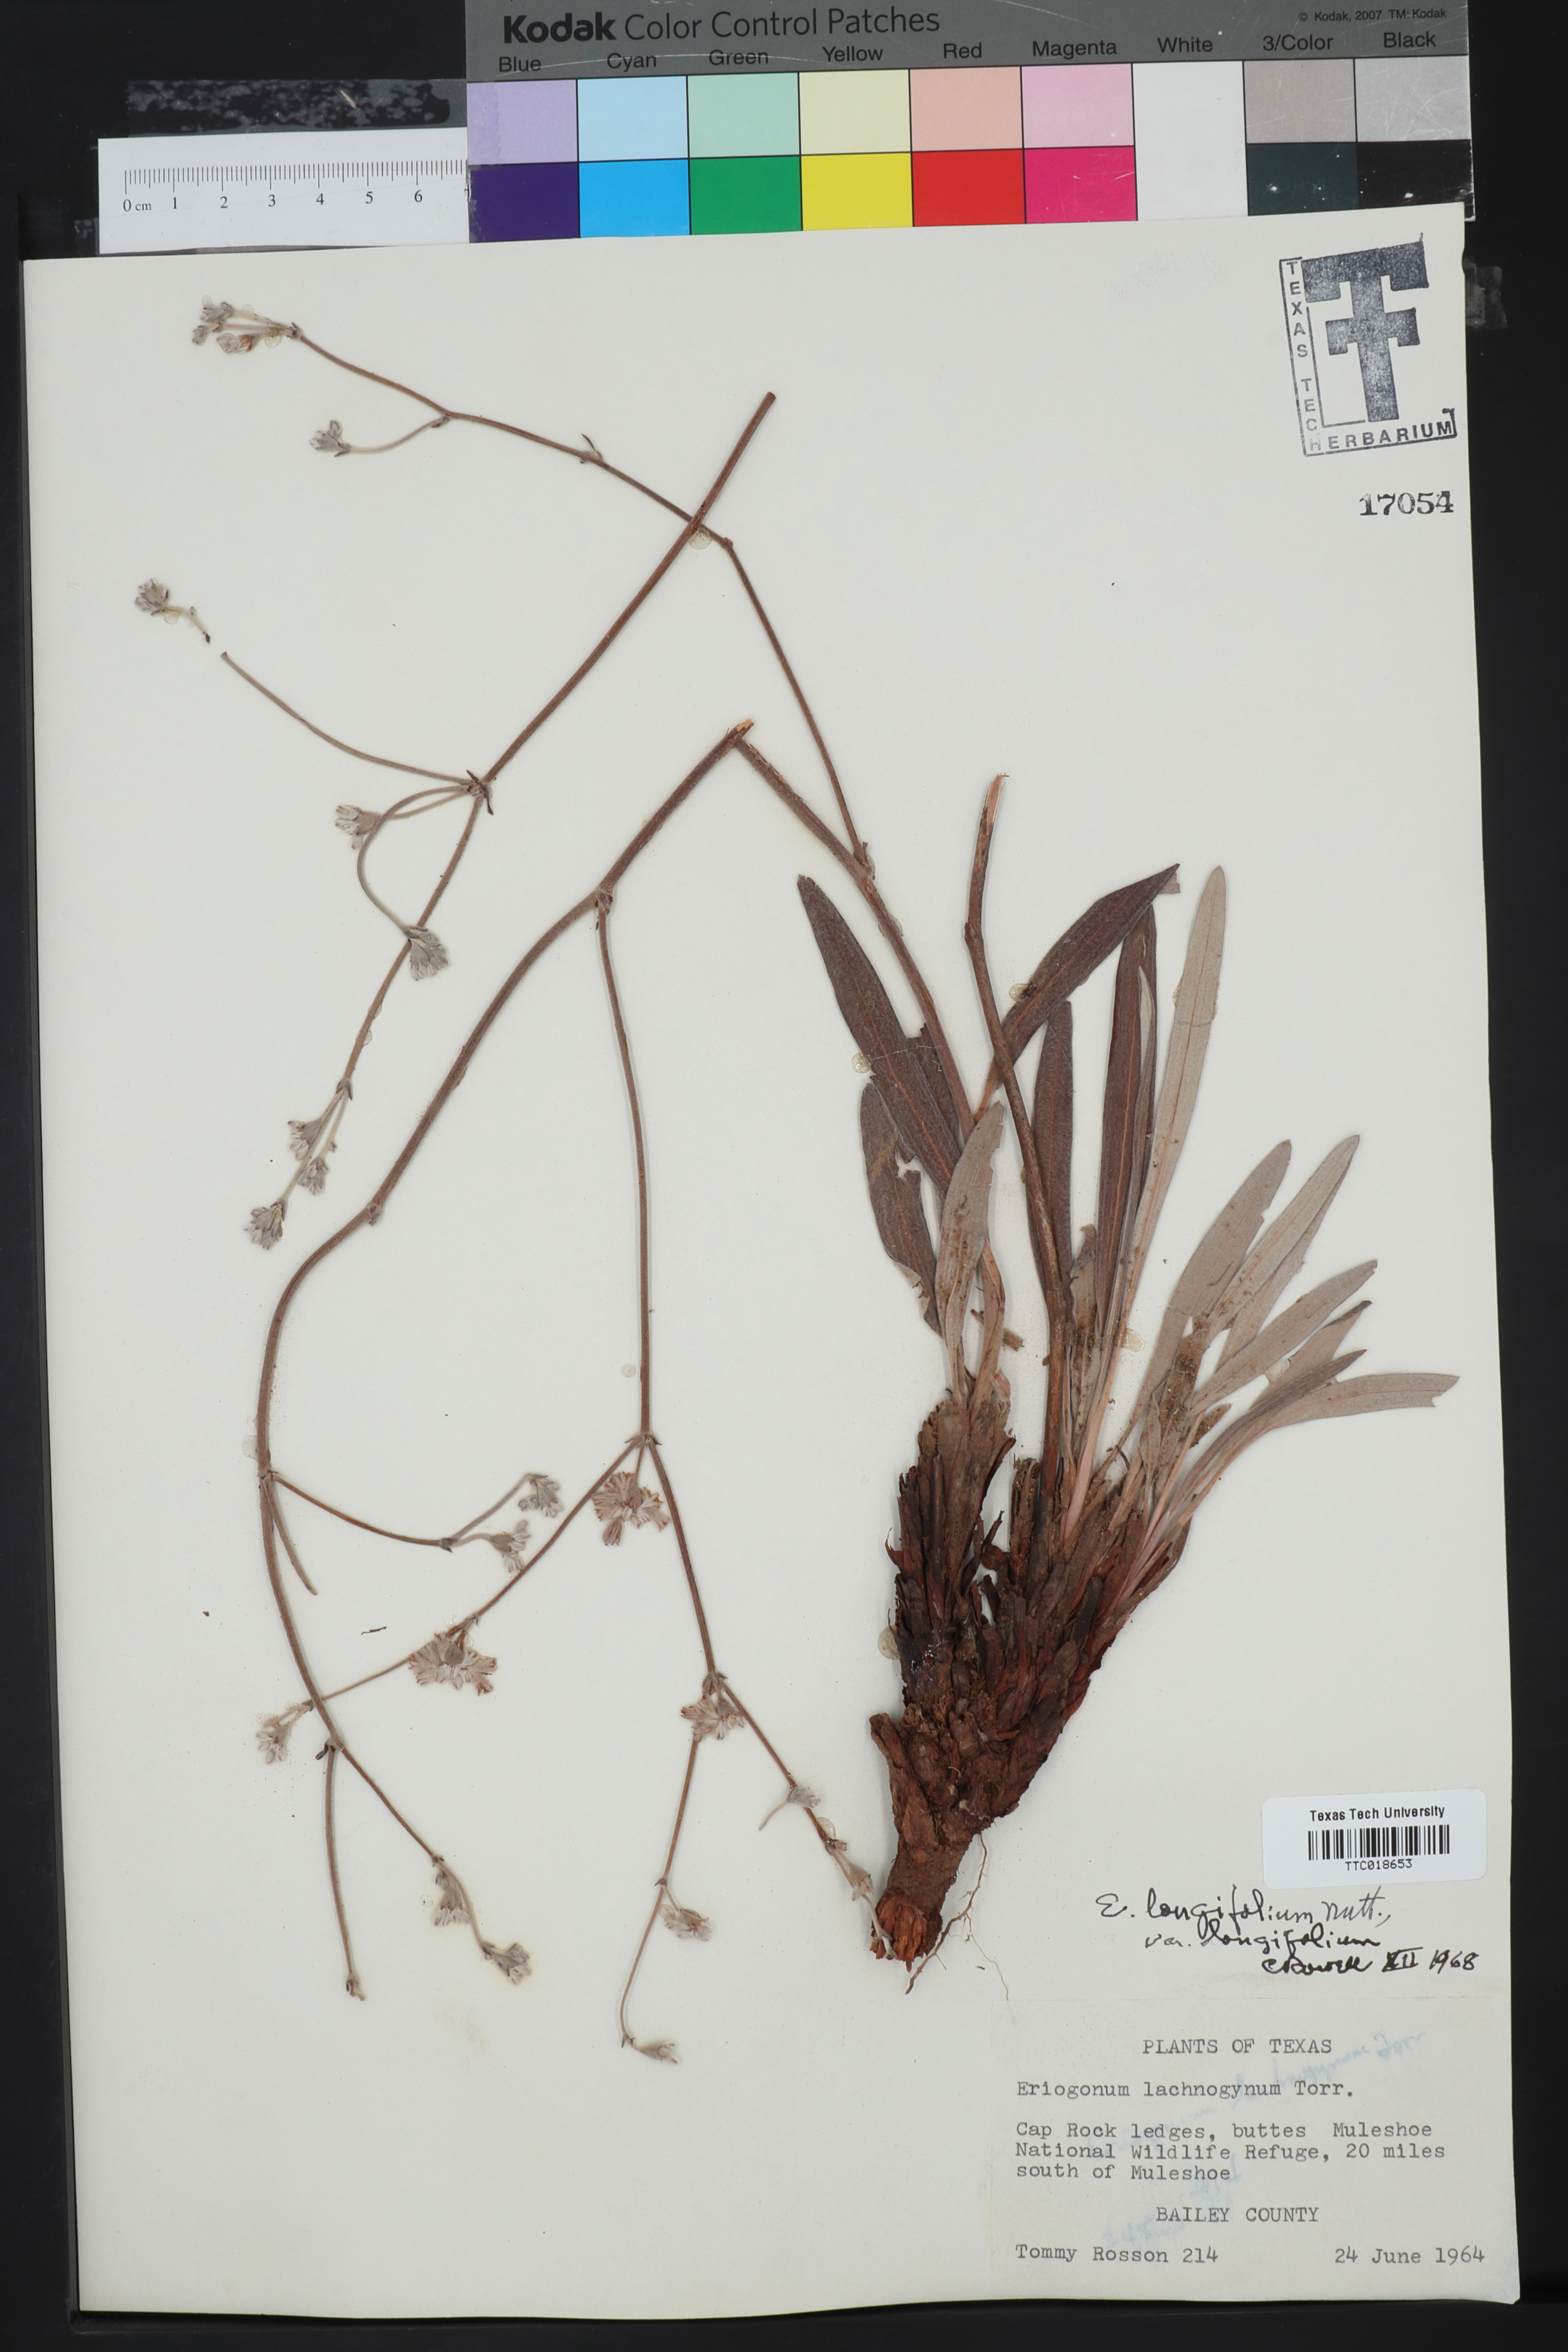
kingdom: Plantae
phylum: Tracheophyta
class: Magnoliopsida
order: Caryophyllales
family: Polygonaceae
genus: Eriogonum
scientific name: Eriogonum longifolium
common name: Longleaf wild buckwheat
